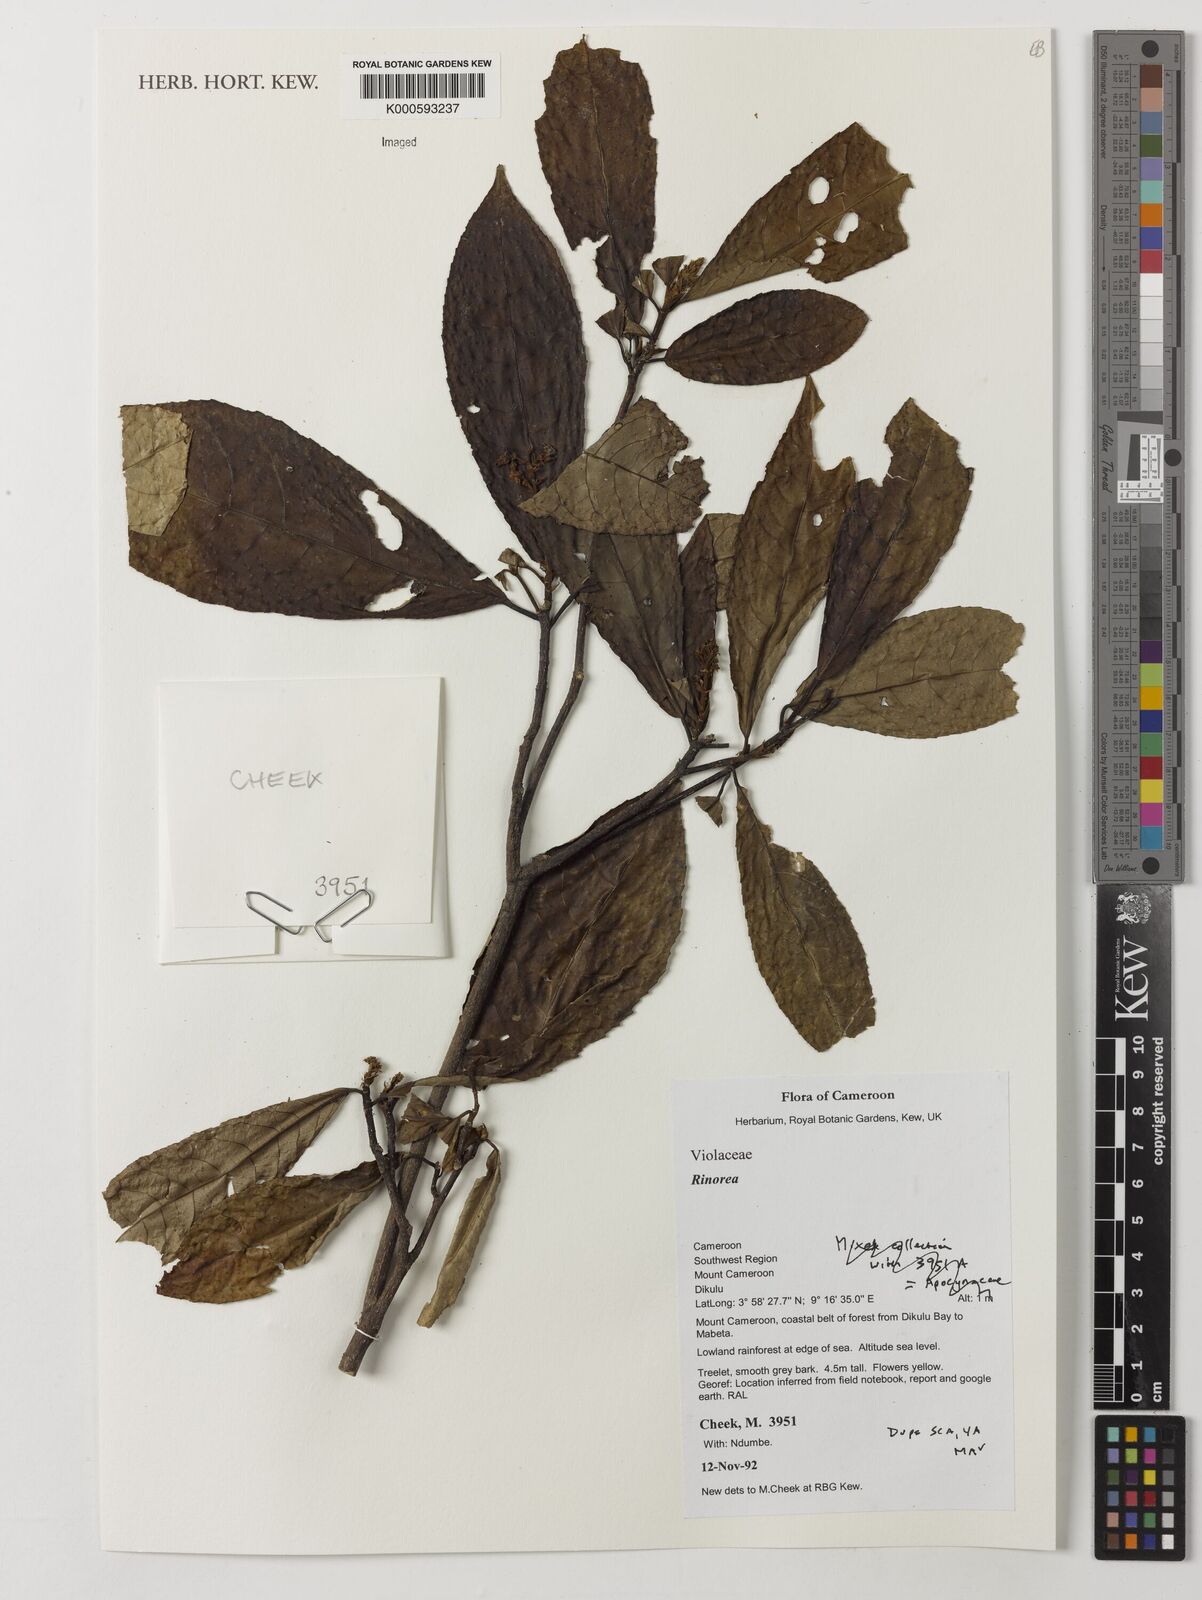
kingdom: Plantae
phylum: Tracheophyta
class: Magnoliopsida
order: Malpighiales
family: Violaceae
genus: Rinorea
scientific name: Rinorea
